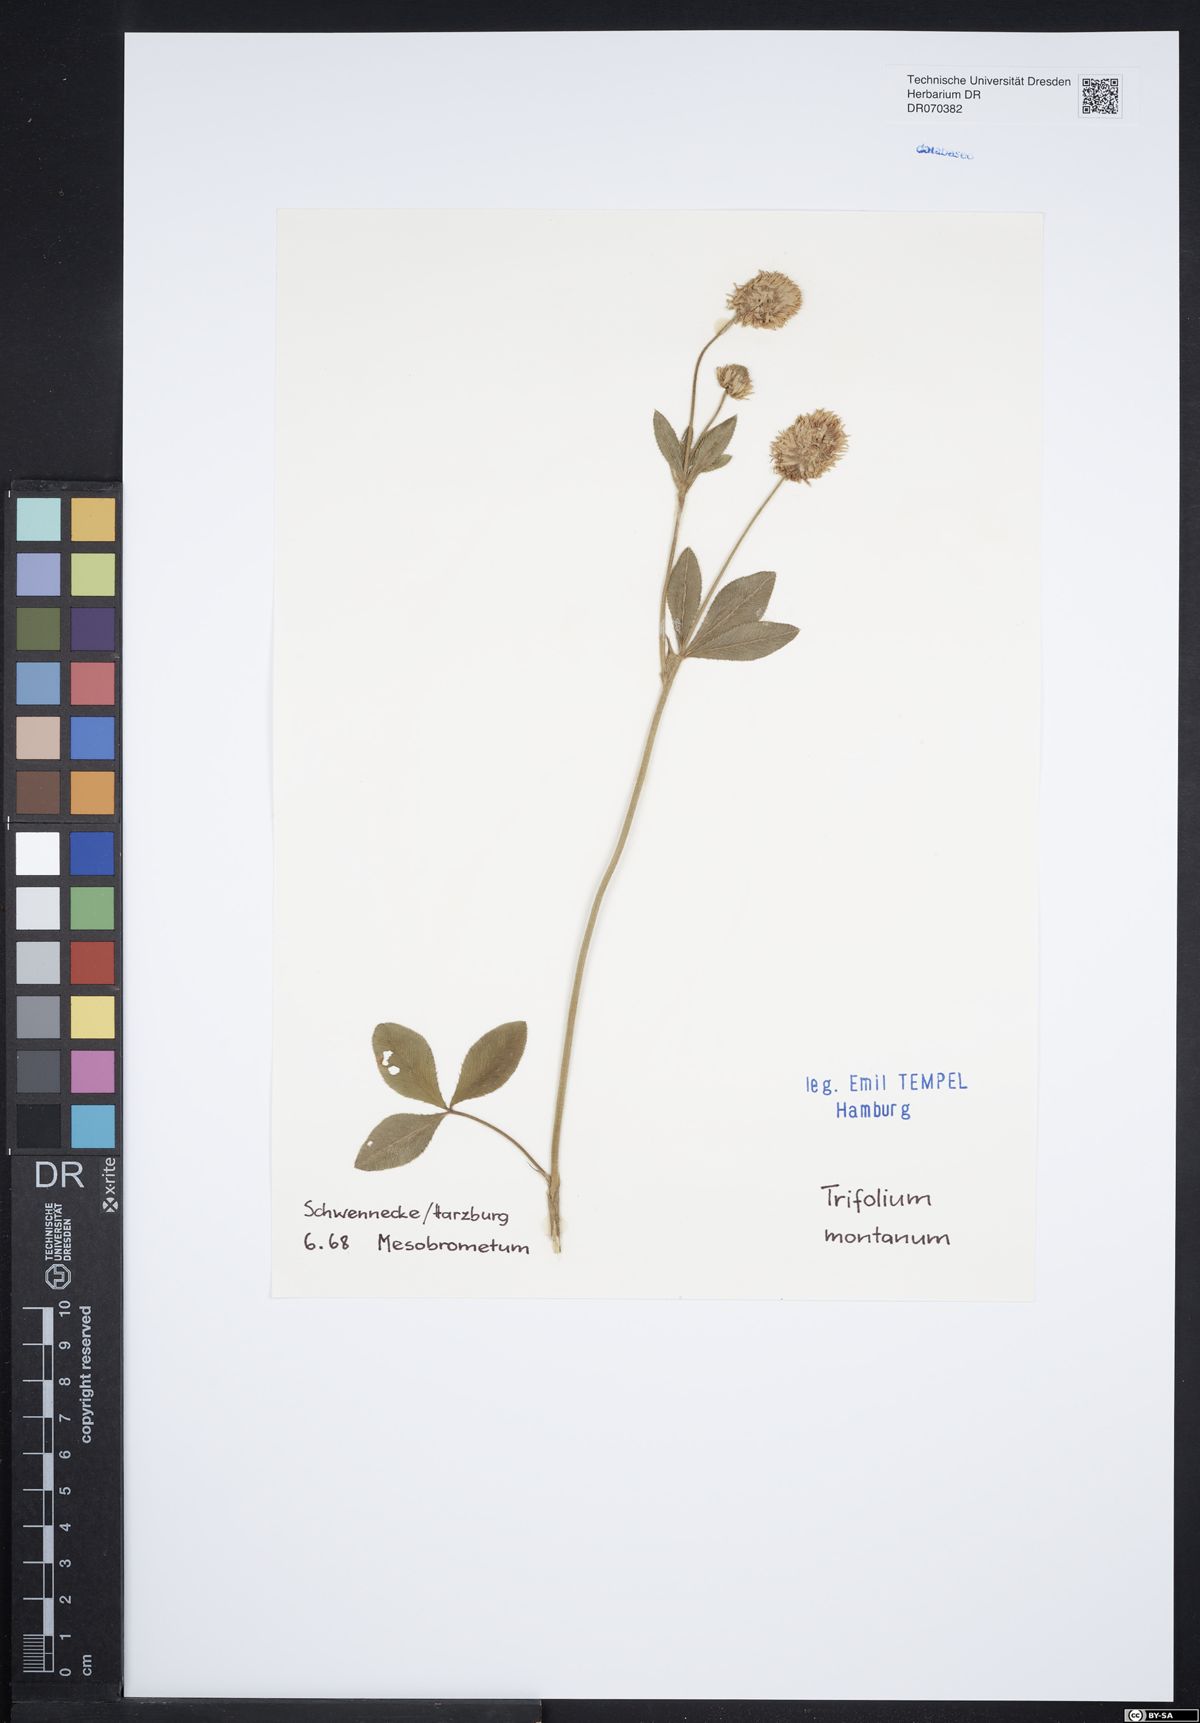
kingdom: Plantae
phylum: Tracheophyta
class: Magnoliopsida
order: Fabales
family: Fabaceae
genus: Trifolium
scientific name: Trifolium montanum
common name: Mountain clover
